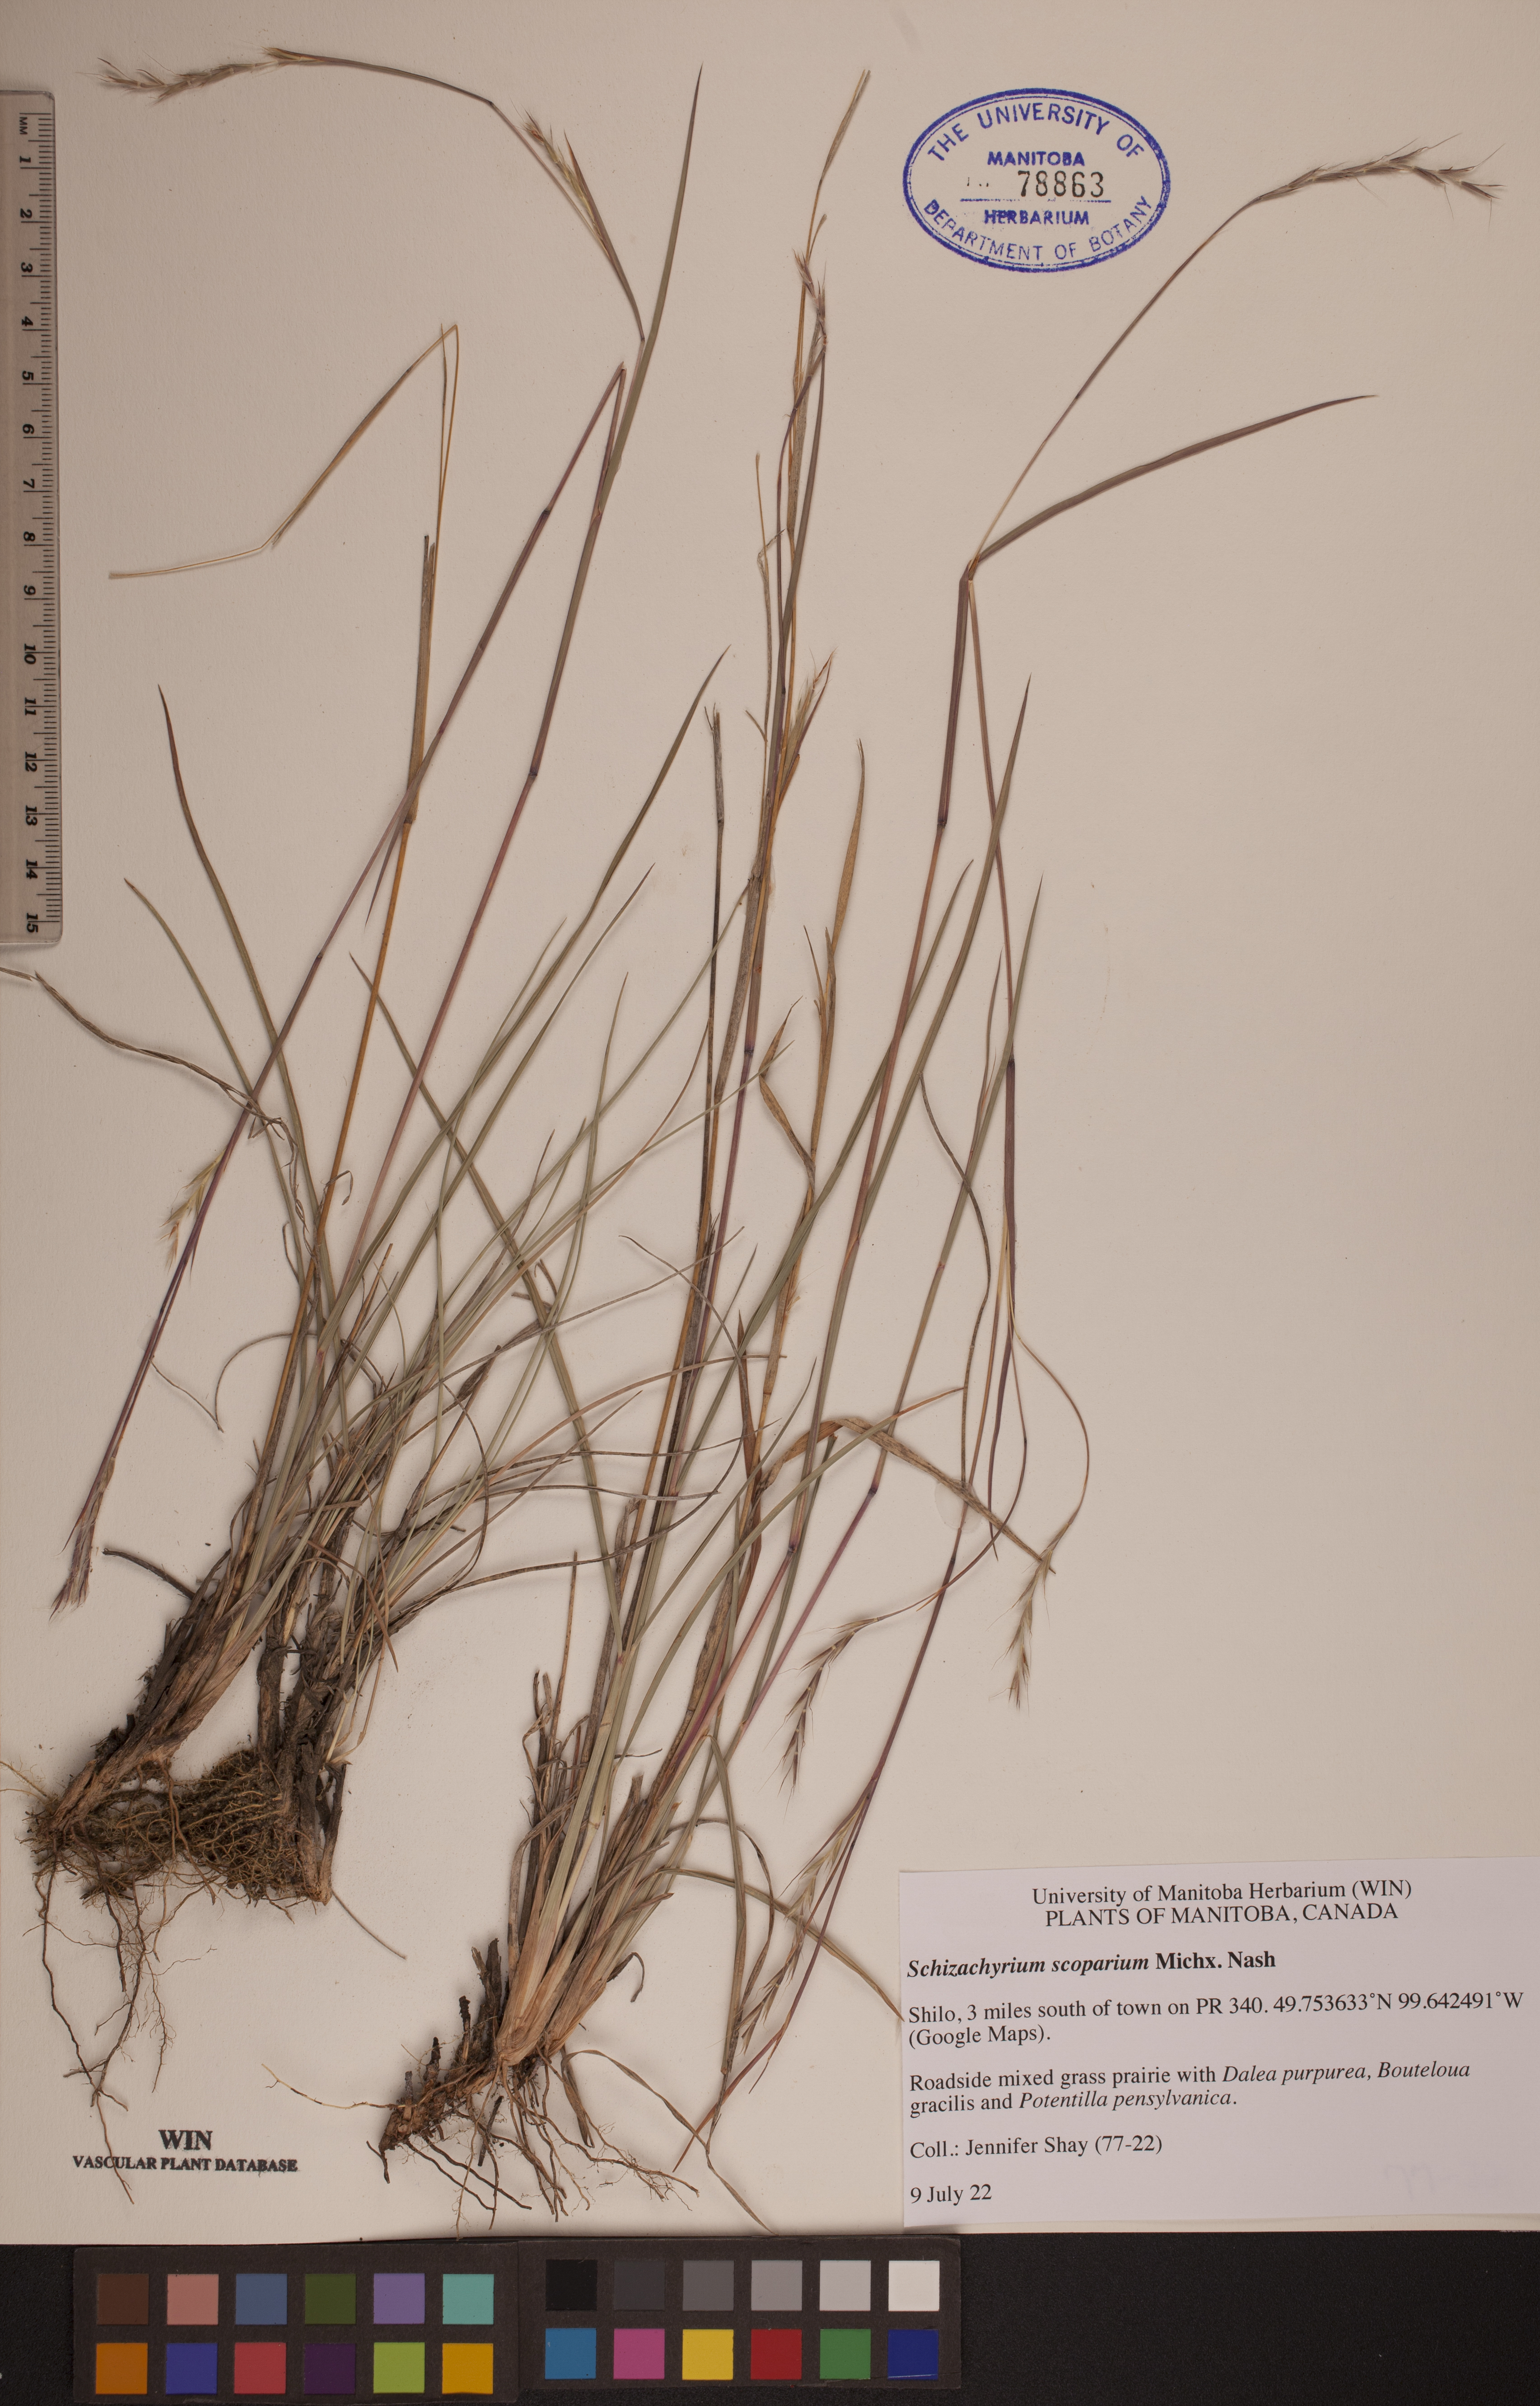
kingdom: Plantae
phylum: Tracheophyta
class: Liliopsida
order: Poales
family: Poaceae
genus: Schizachyrium
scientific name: Schizachyrium scoparium
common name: Little bluestem
